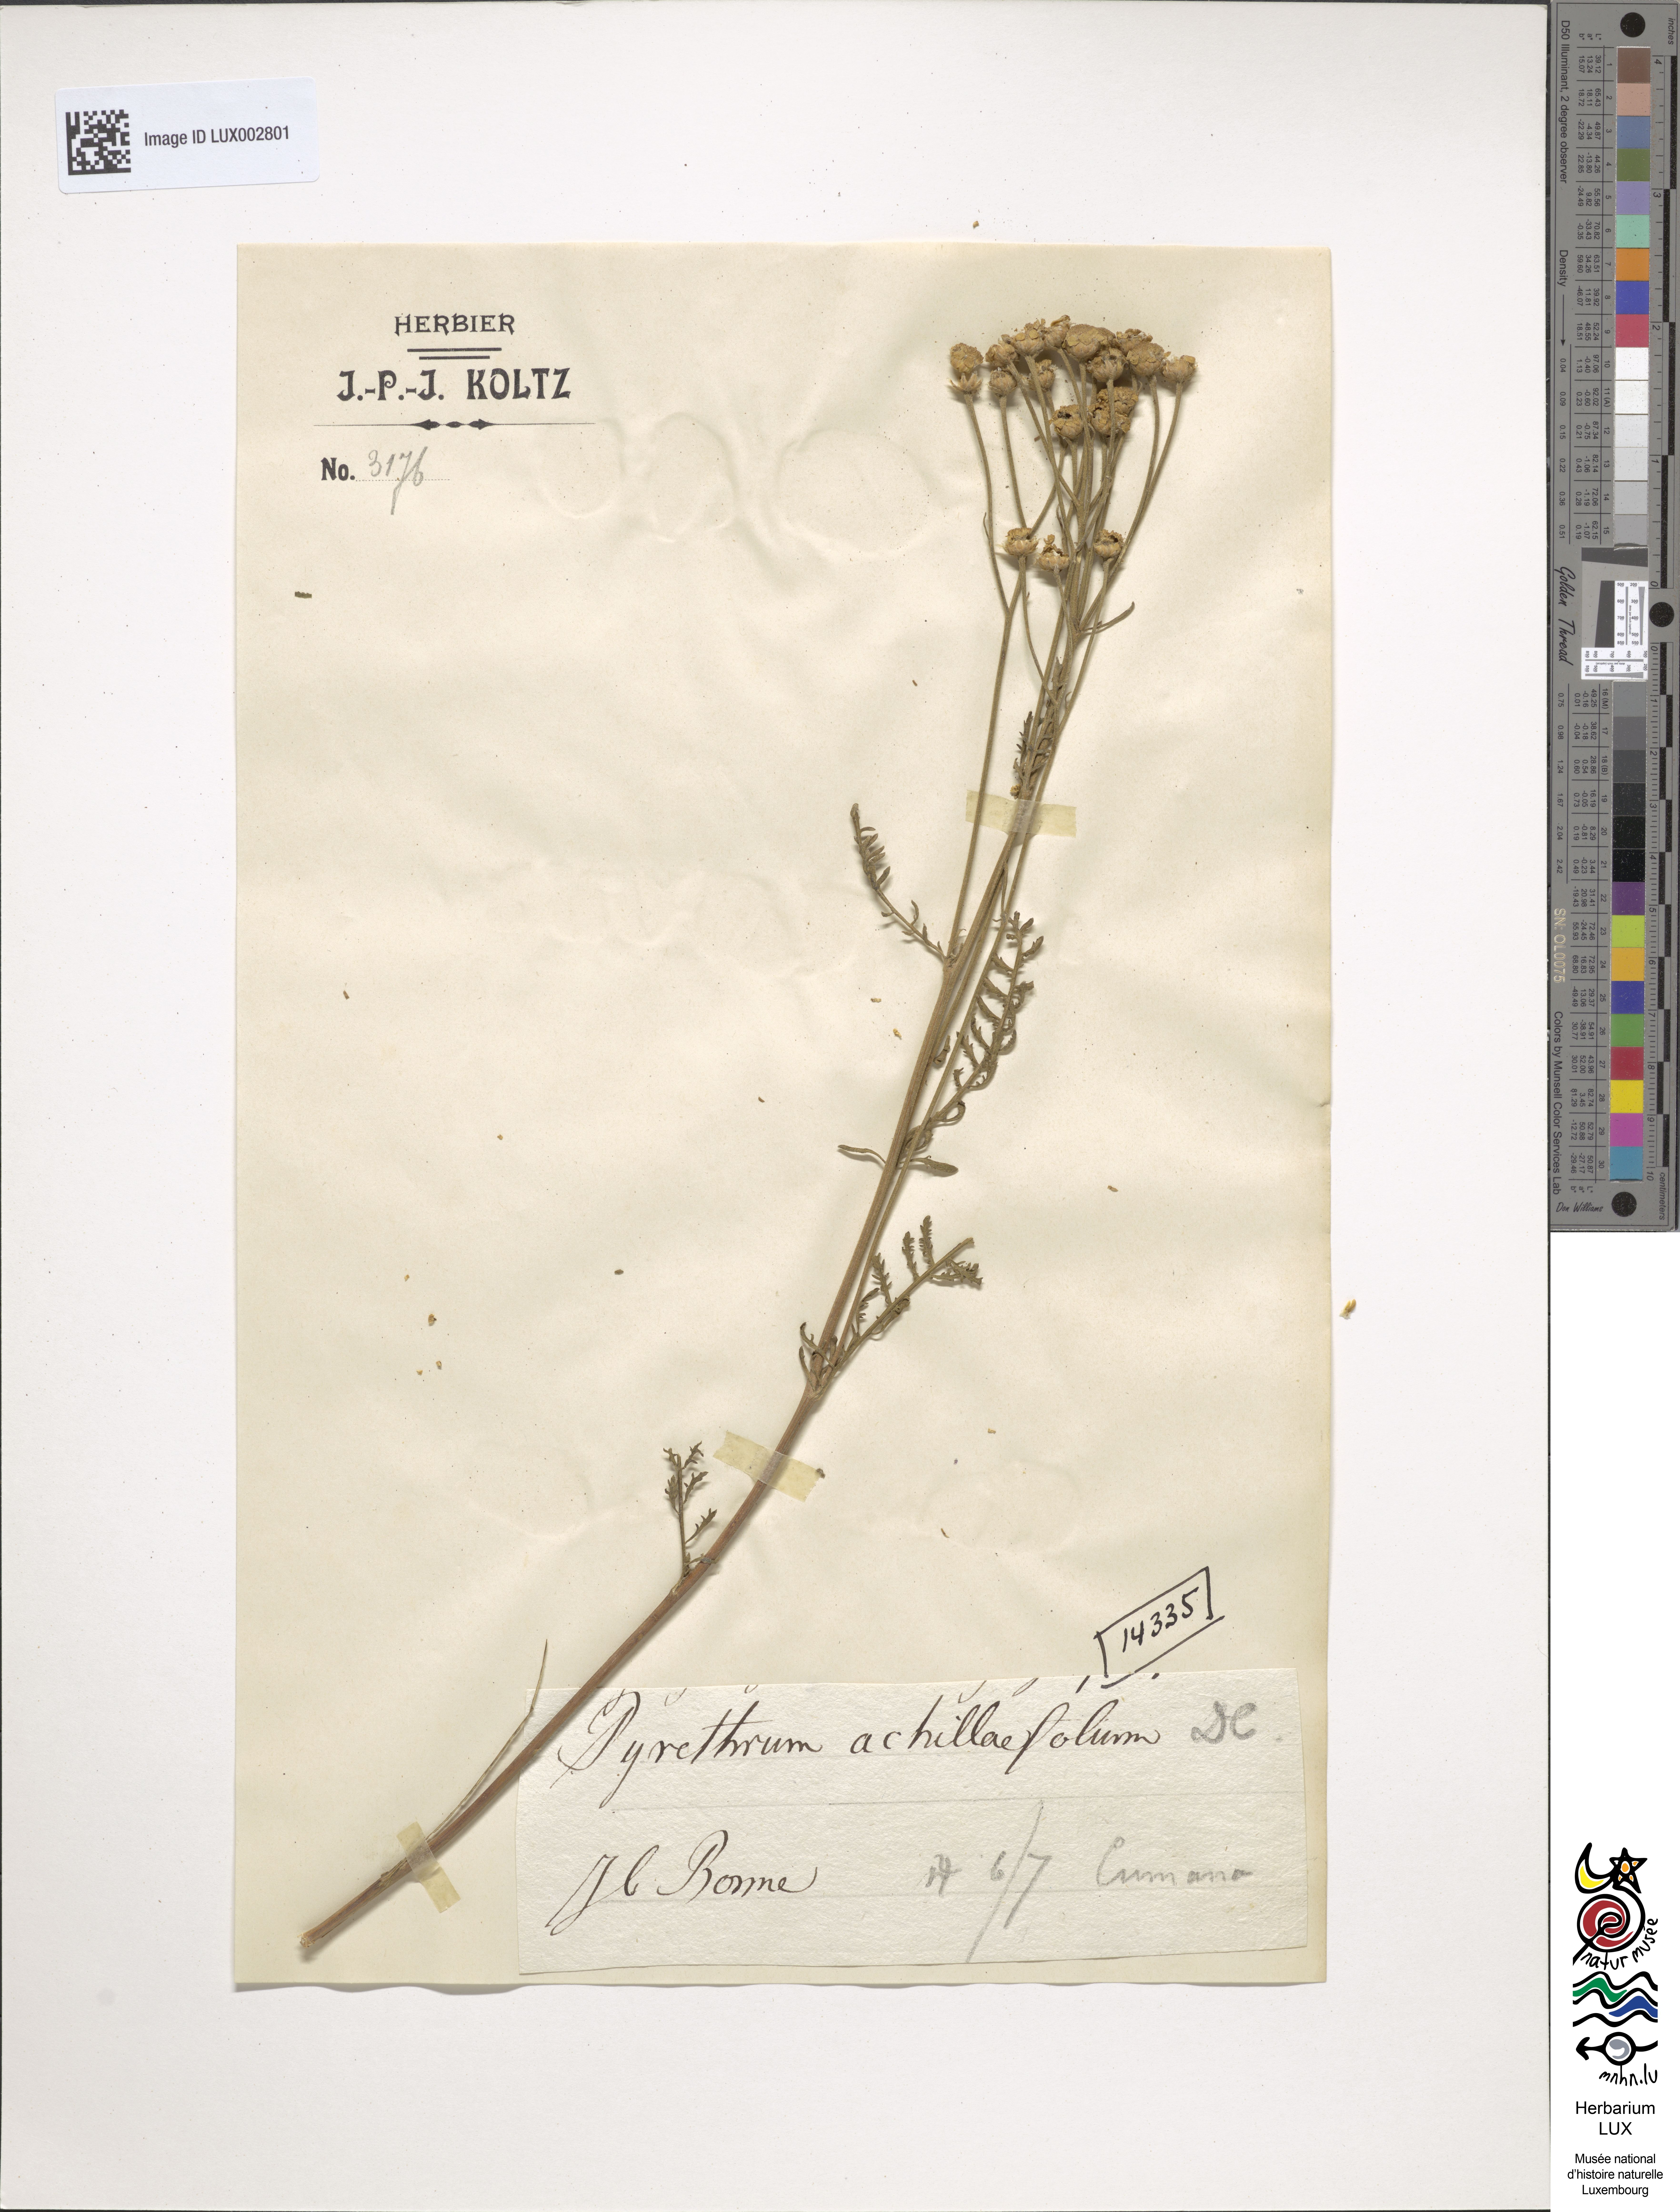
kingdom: Plantae
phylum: Tracheophyta
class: Magnoliopsida
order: Asterales
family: Asteraceae
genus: Tanacetum
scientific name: Tanacetum achilleifolium
